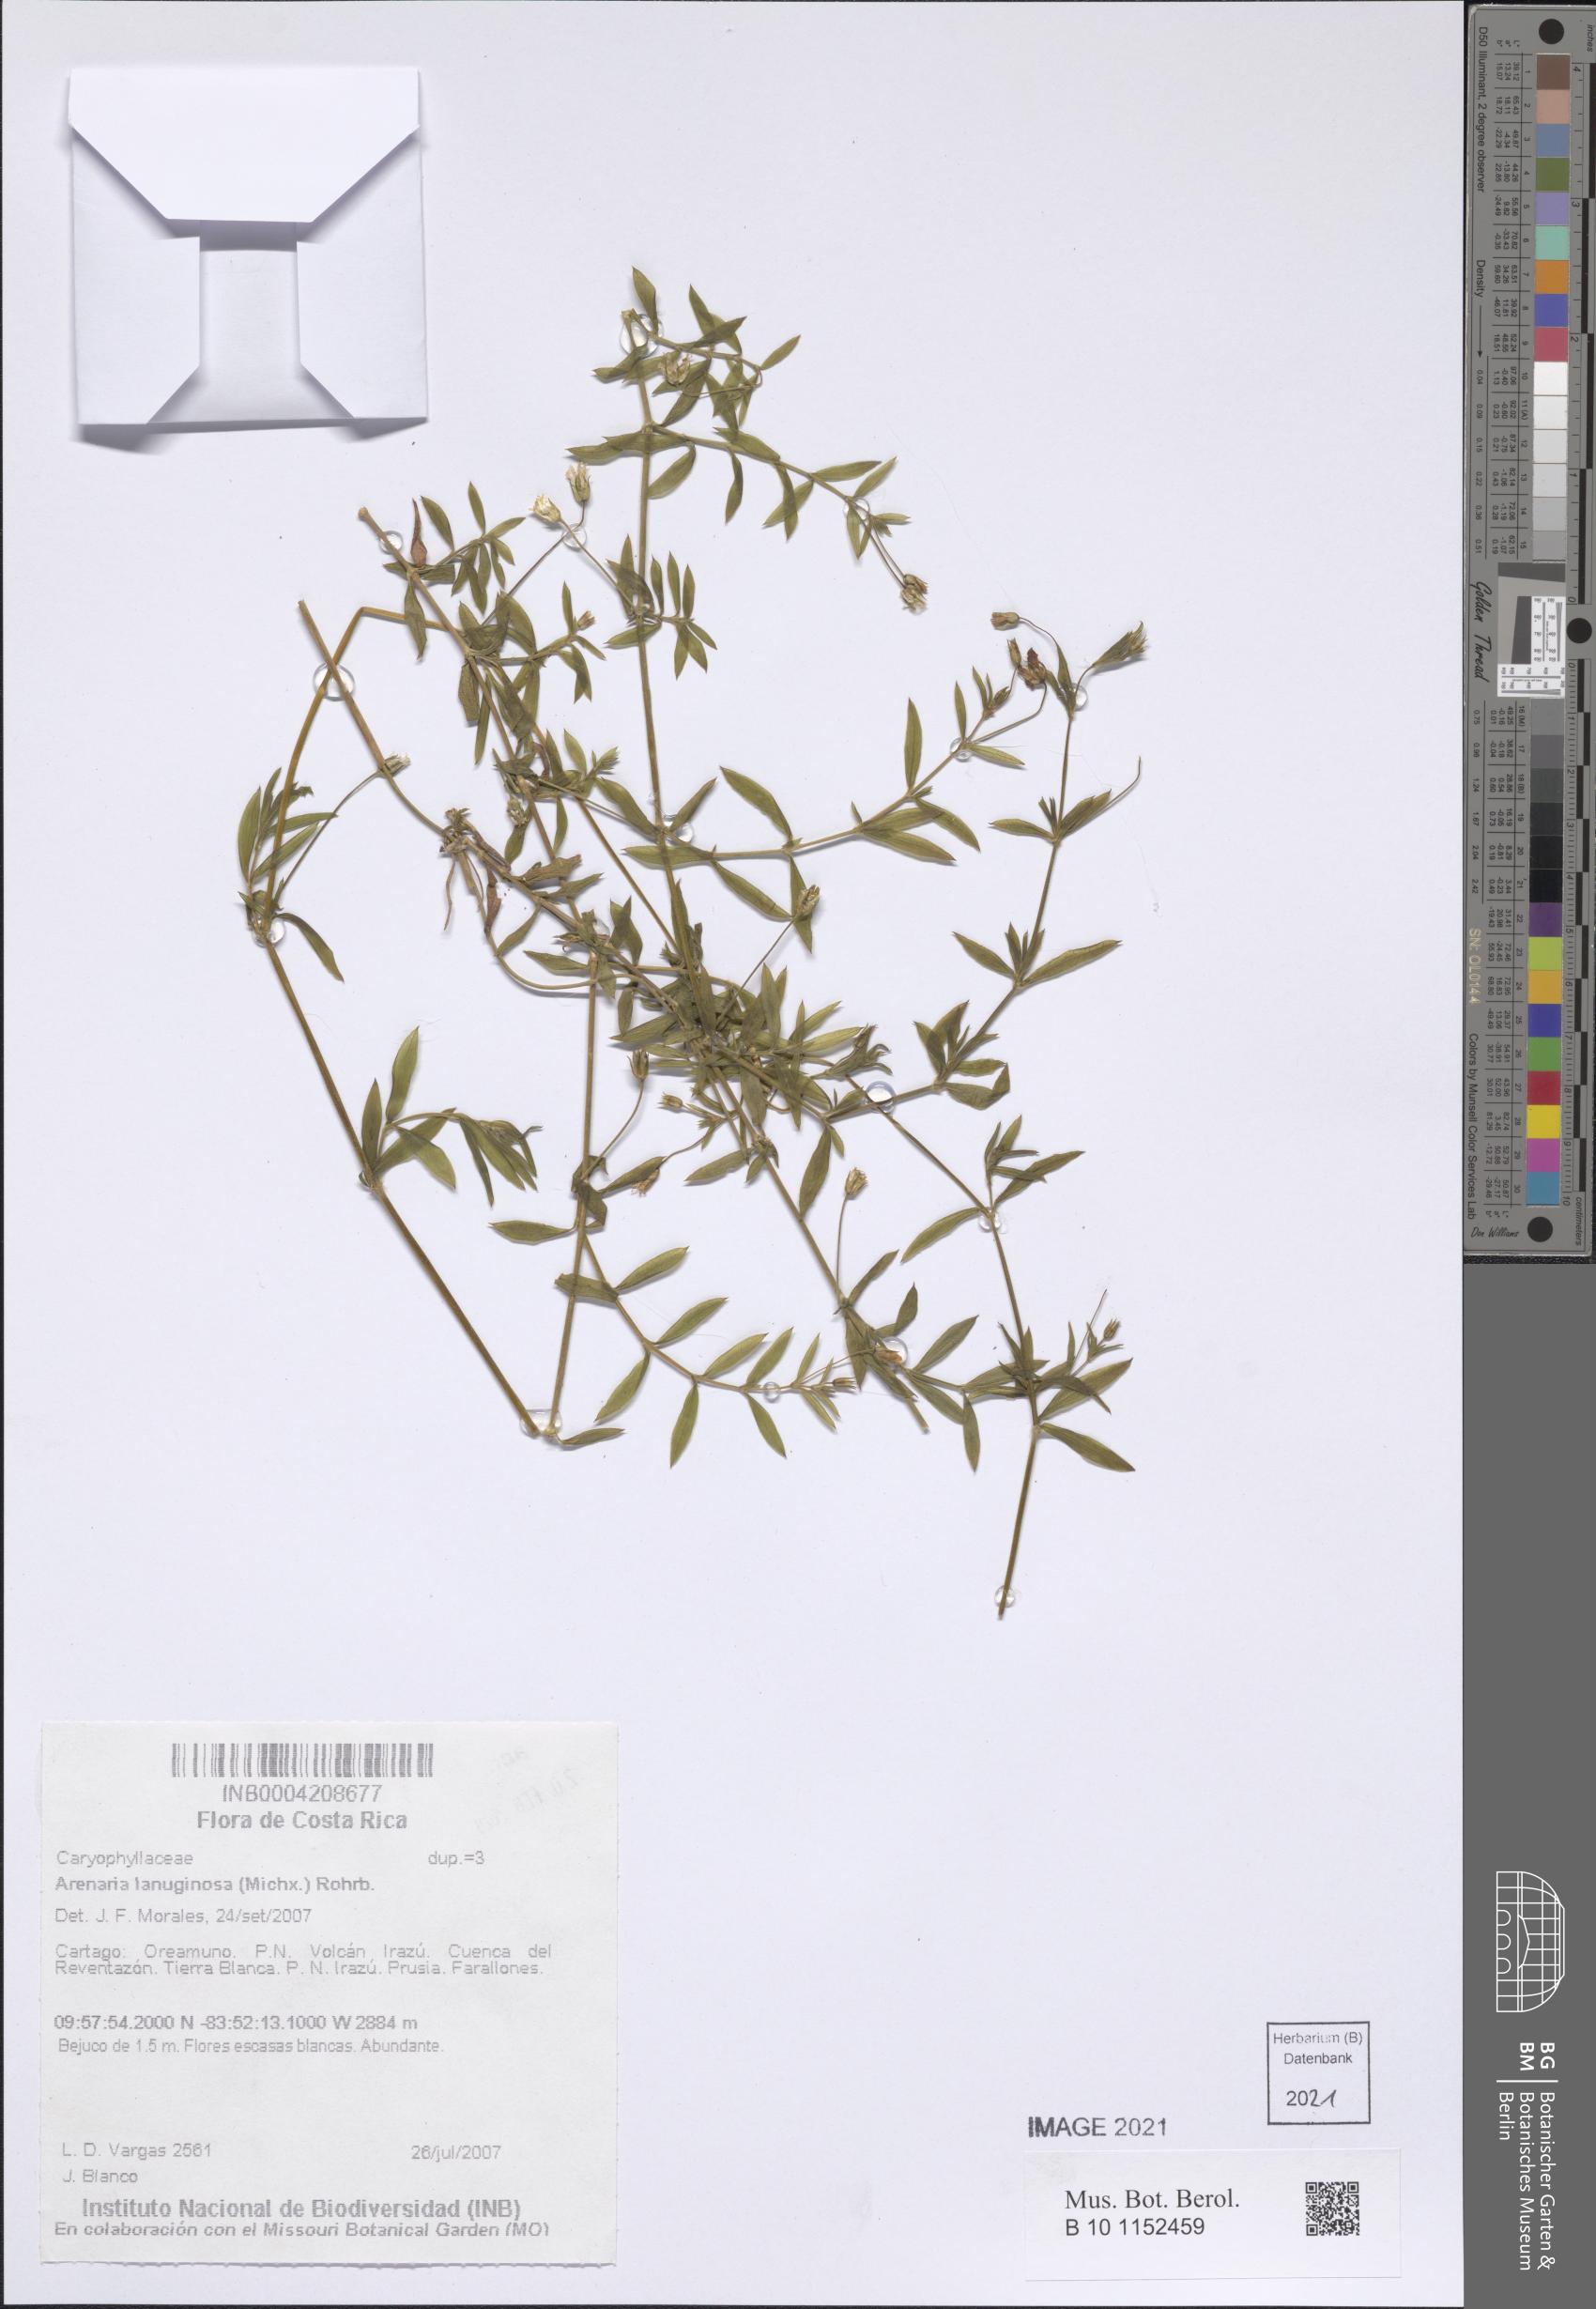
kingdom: Plantae
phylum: Tracheophyta
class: Magnoliopsida
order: Caryophyllales
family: Caryophyllaceae
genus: Arenaria
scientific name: Arenaria lanuginosa
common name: Spread sandwort
